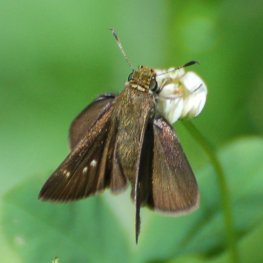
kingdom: Animalia
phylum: Arthropoda
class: Insecta
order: Lepidoptera
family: Hesperiidae
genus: Euphyes
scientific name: Euphyes vestris
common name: Dun Skipper
